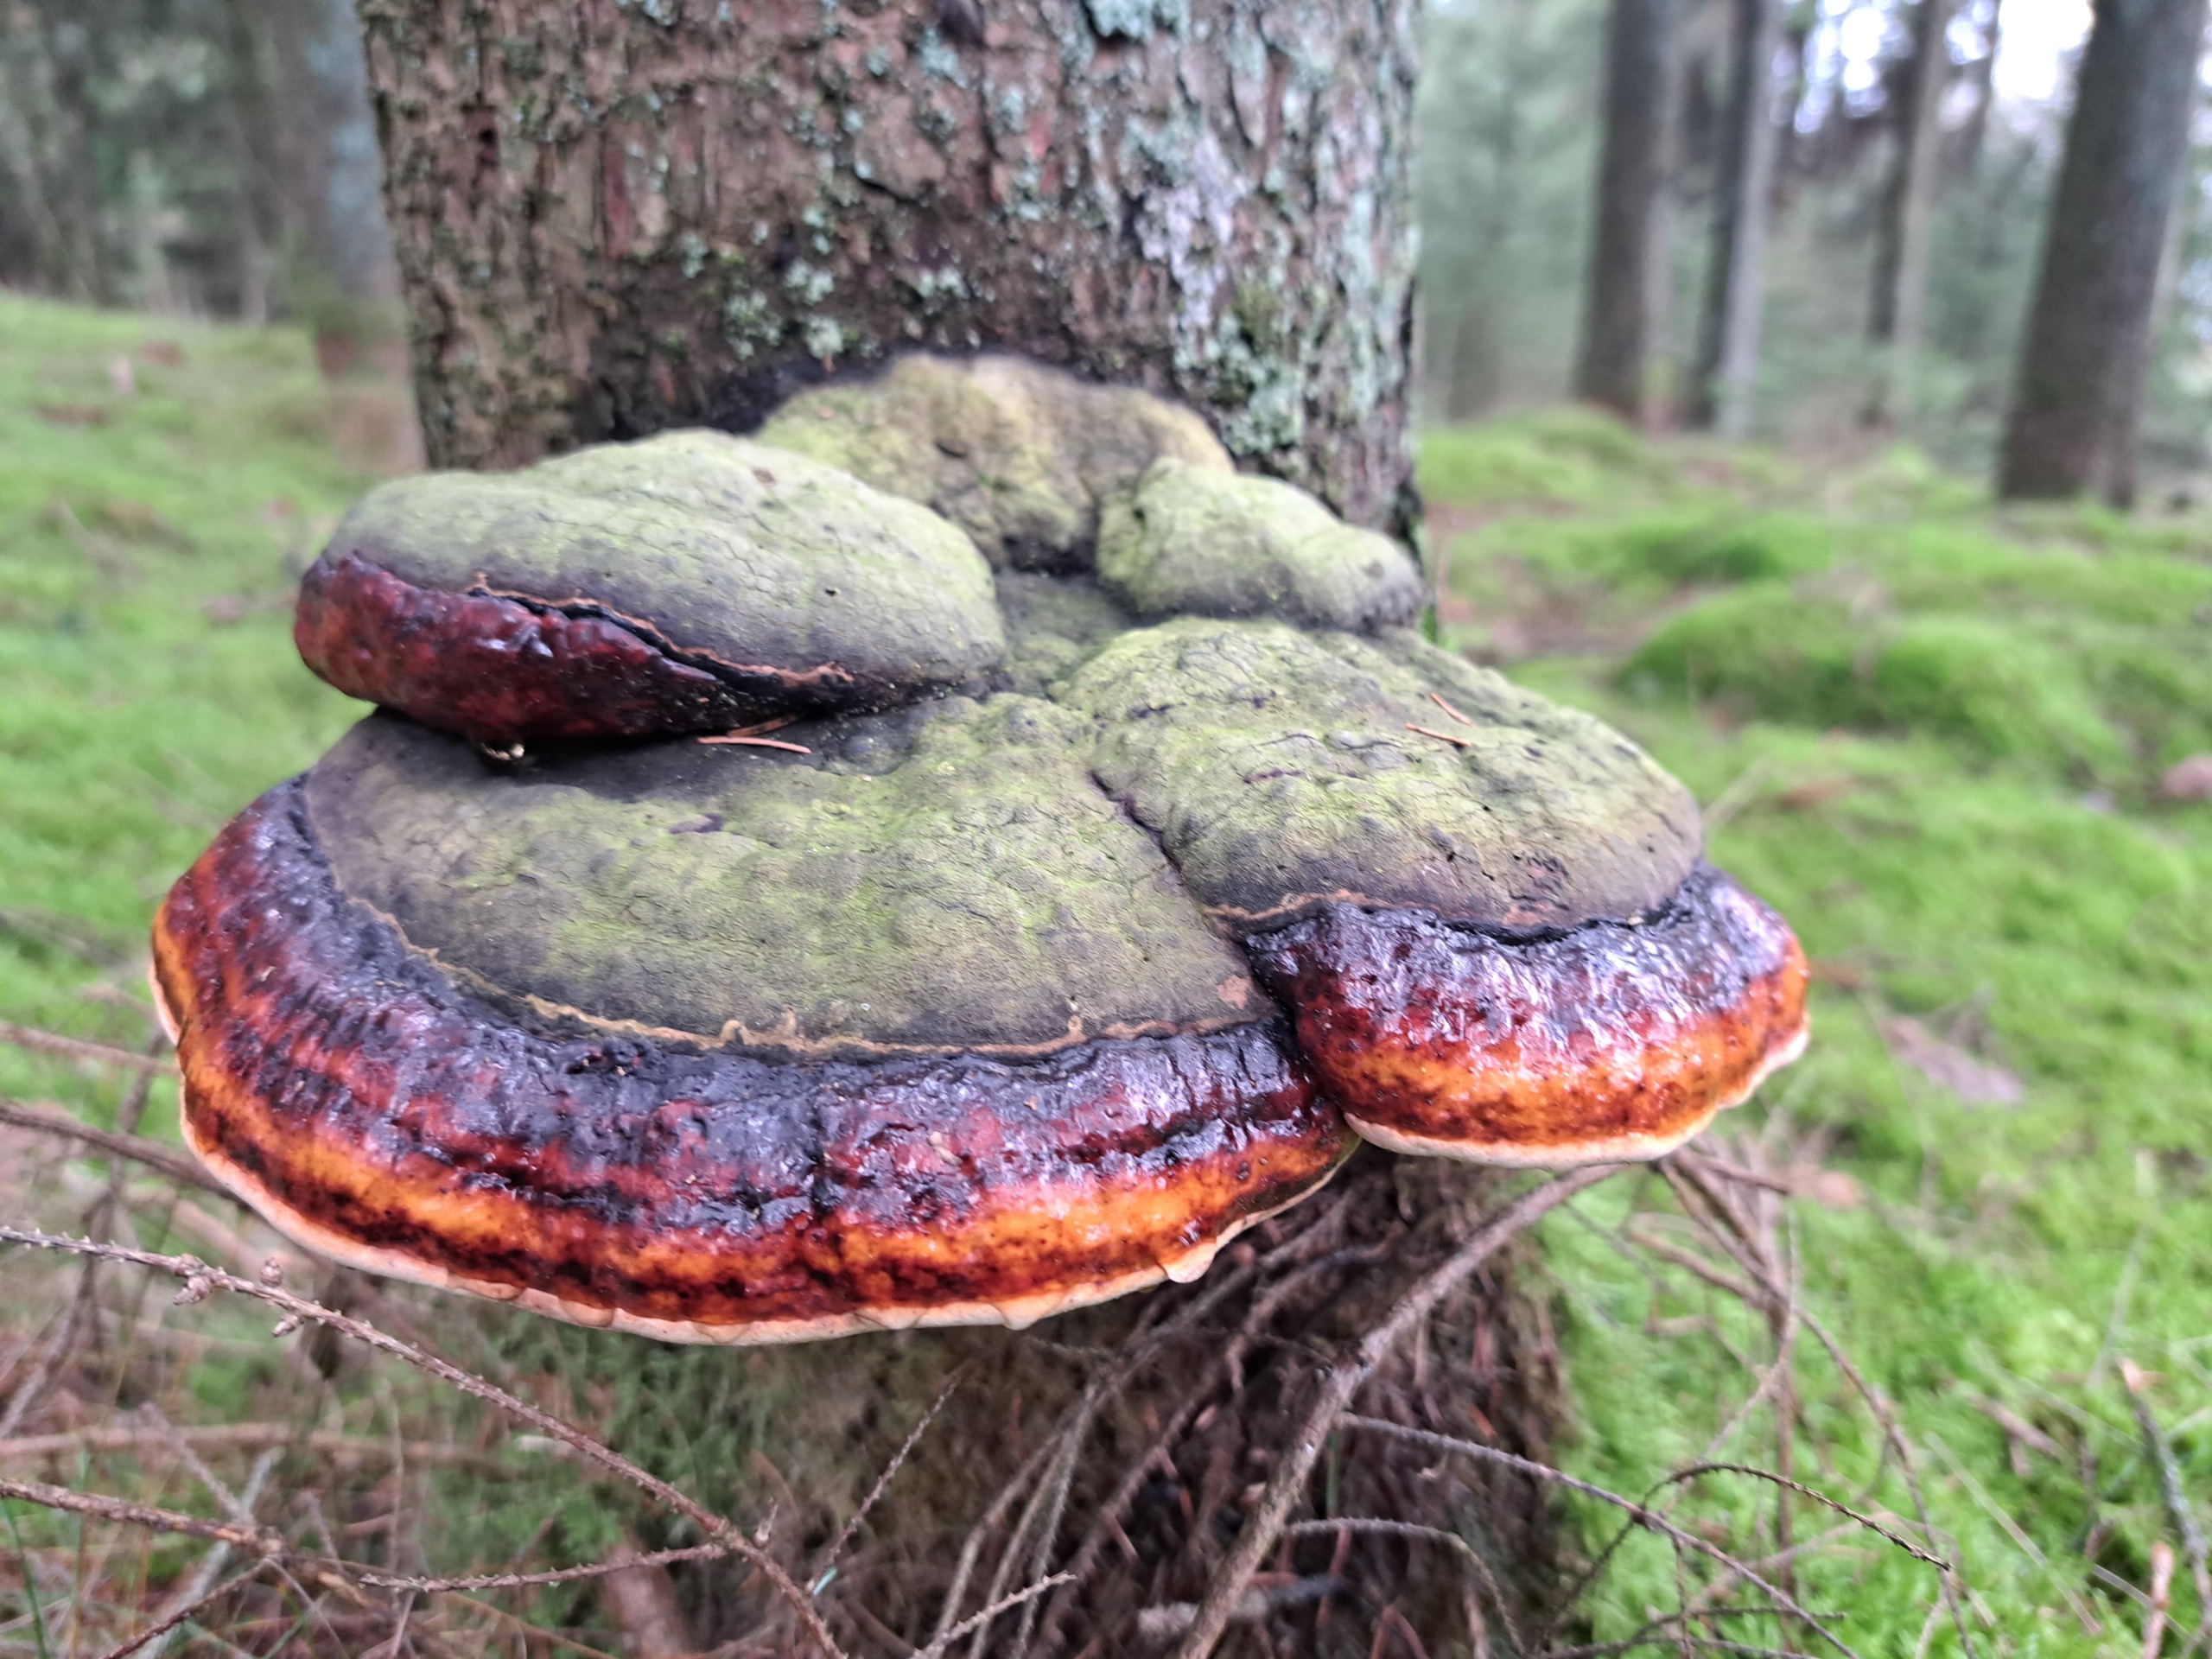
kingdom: Fungi
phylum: Basidiomycota
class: Agaricomycetes
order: Polyporales
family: Fomitopsidaceae
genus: Fomitopsis
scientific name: Fomitopsis pinicola
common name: Randbæltet hovporesvamp
